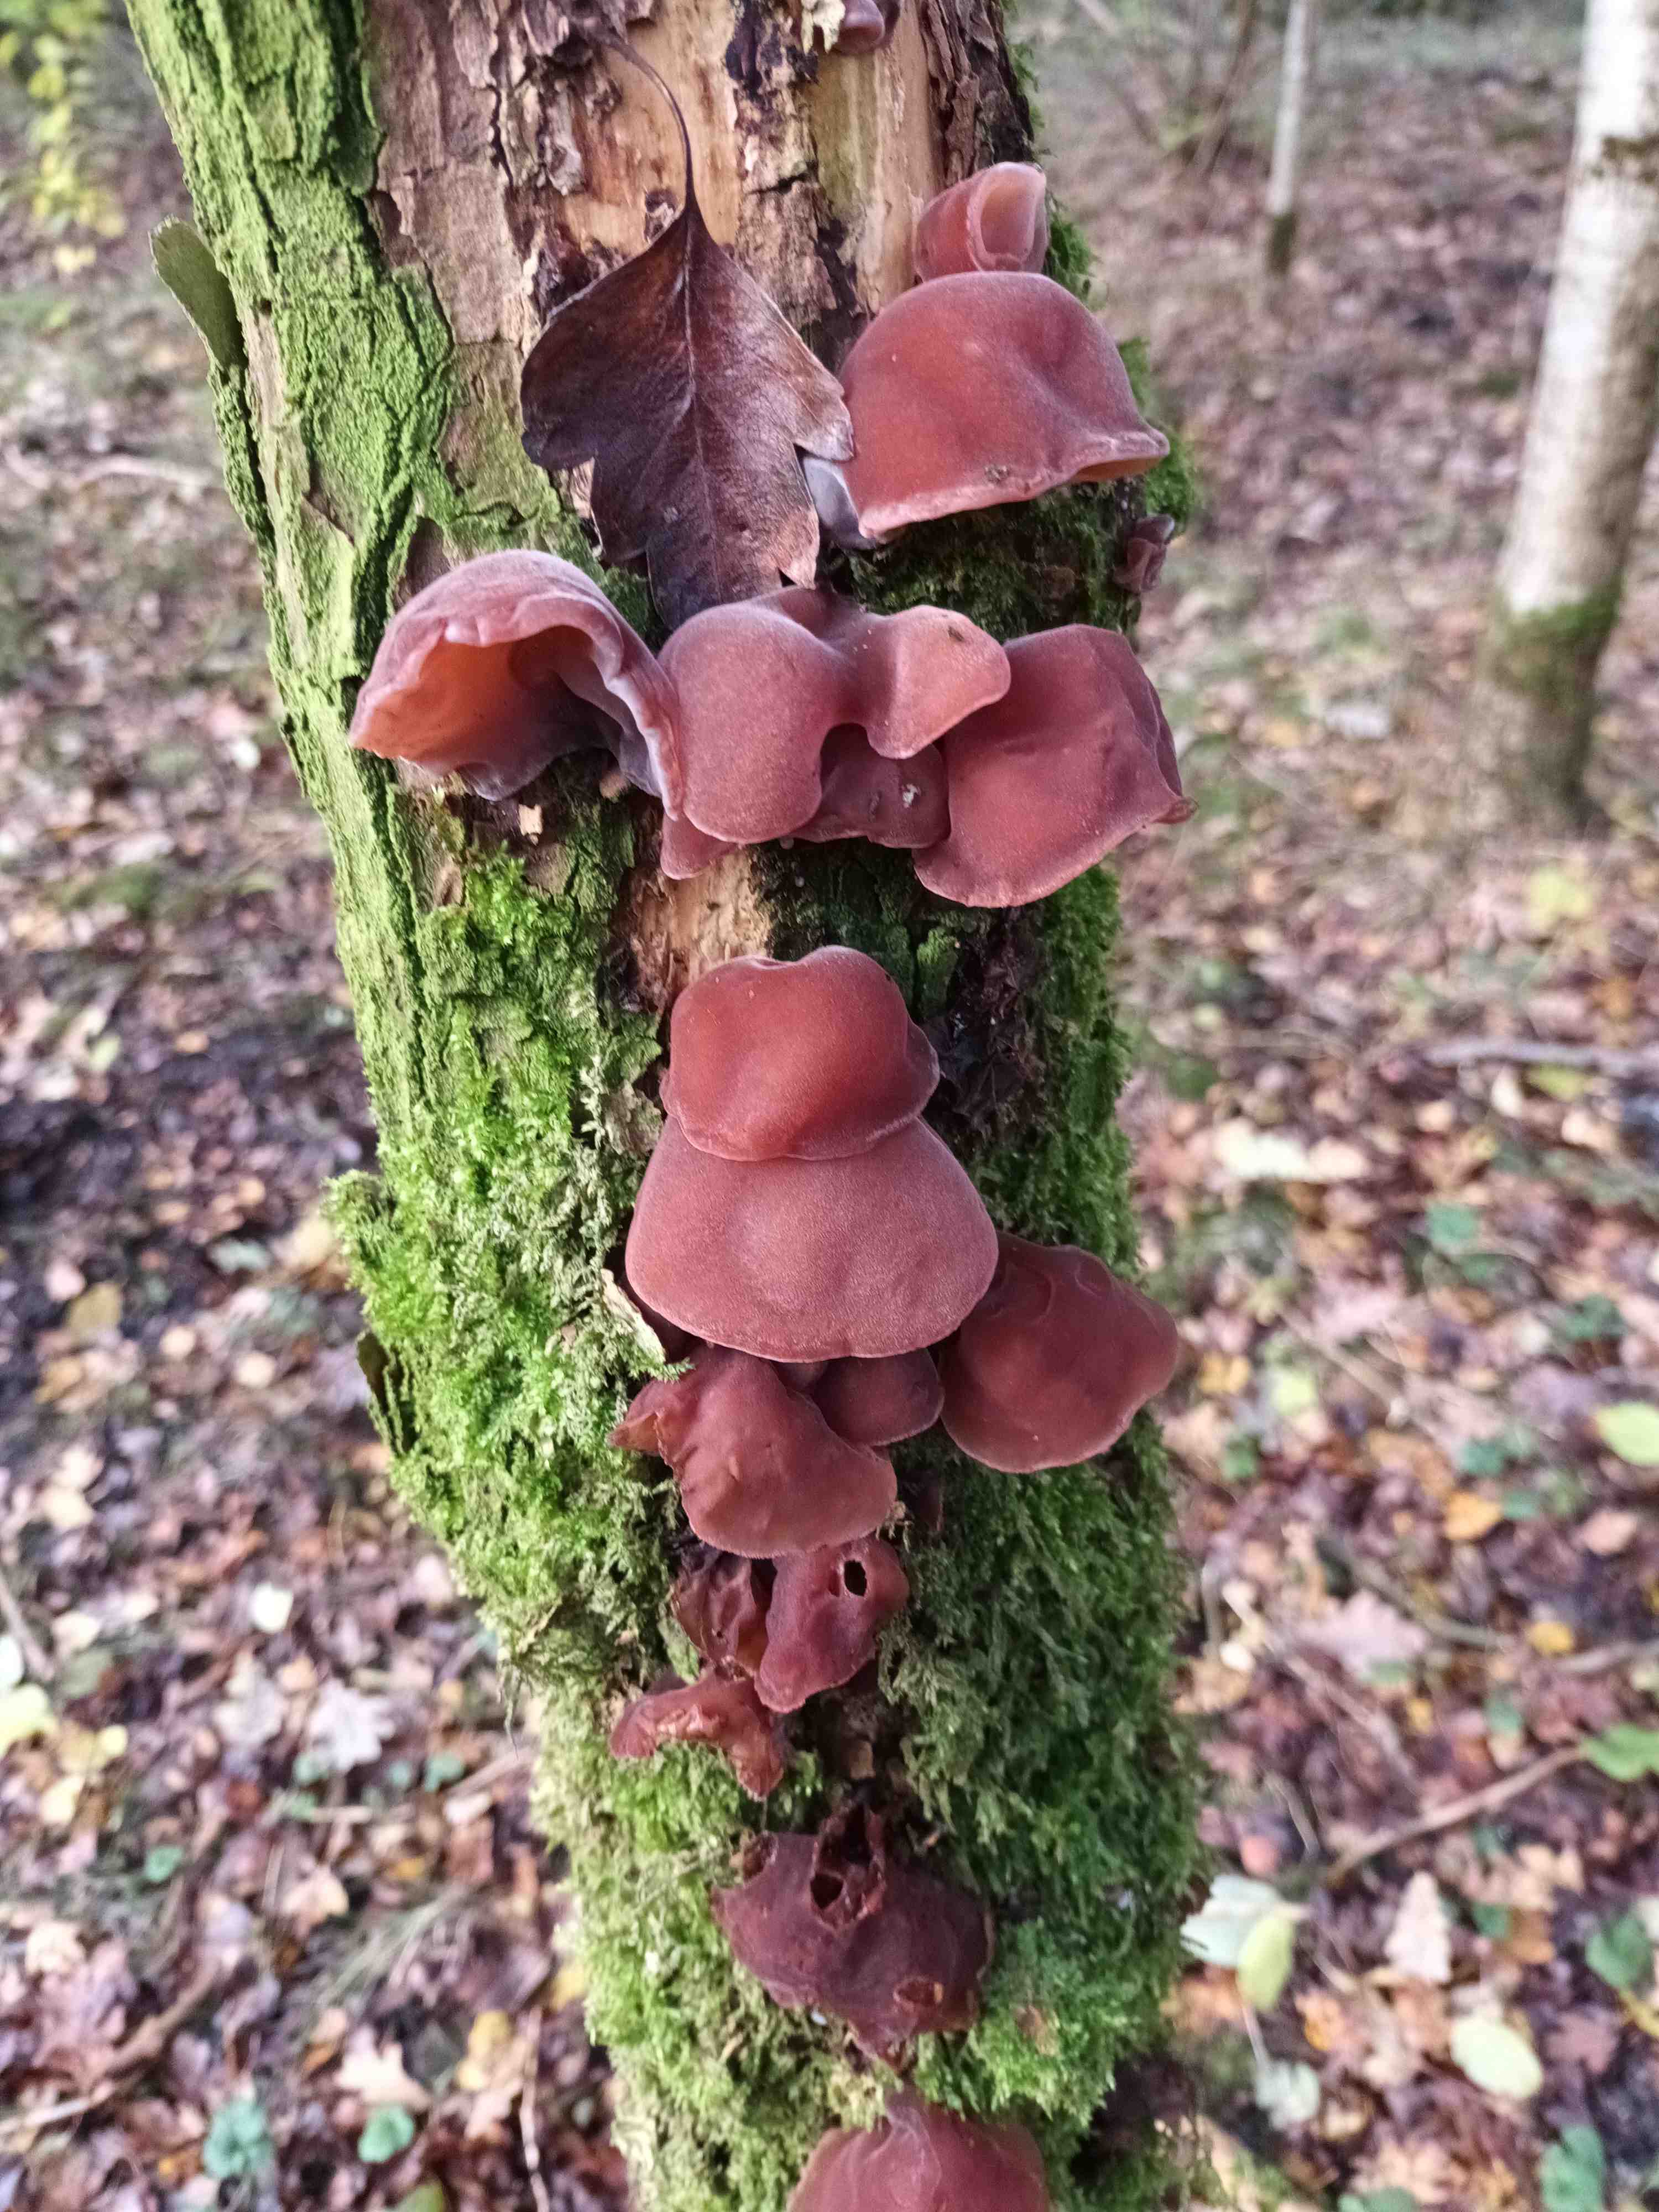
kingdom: Fungi
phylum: Basidiomycota
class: Agaricomycetes
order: Auriculariales
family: Auriculariaceae
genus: Auricularia
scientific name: Auricularia auricula-judae
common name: almindelig judasøre
